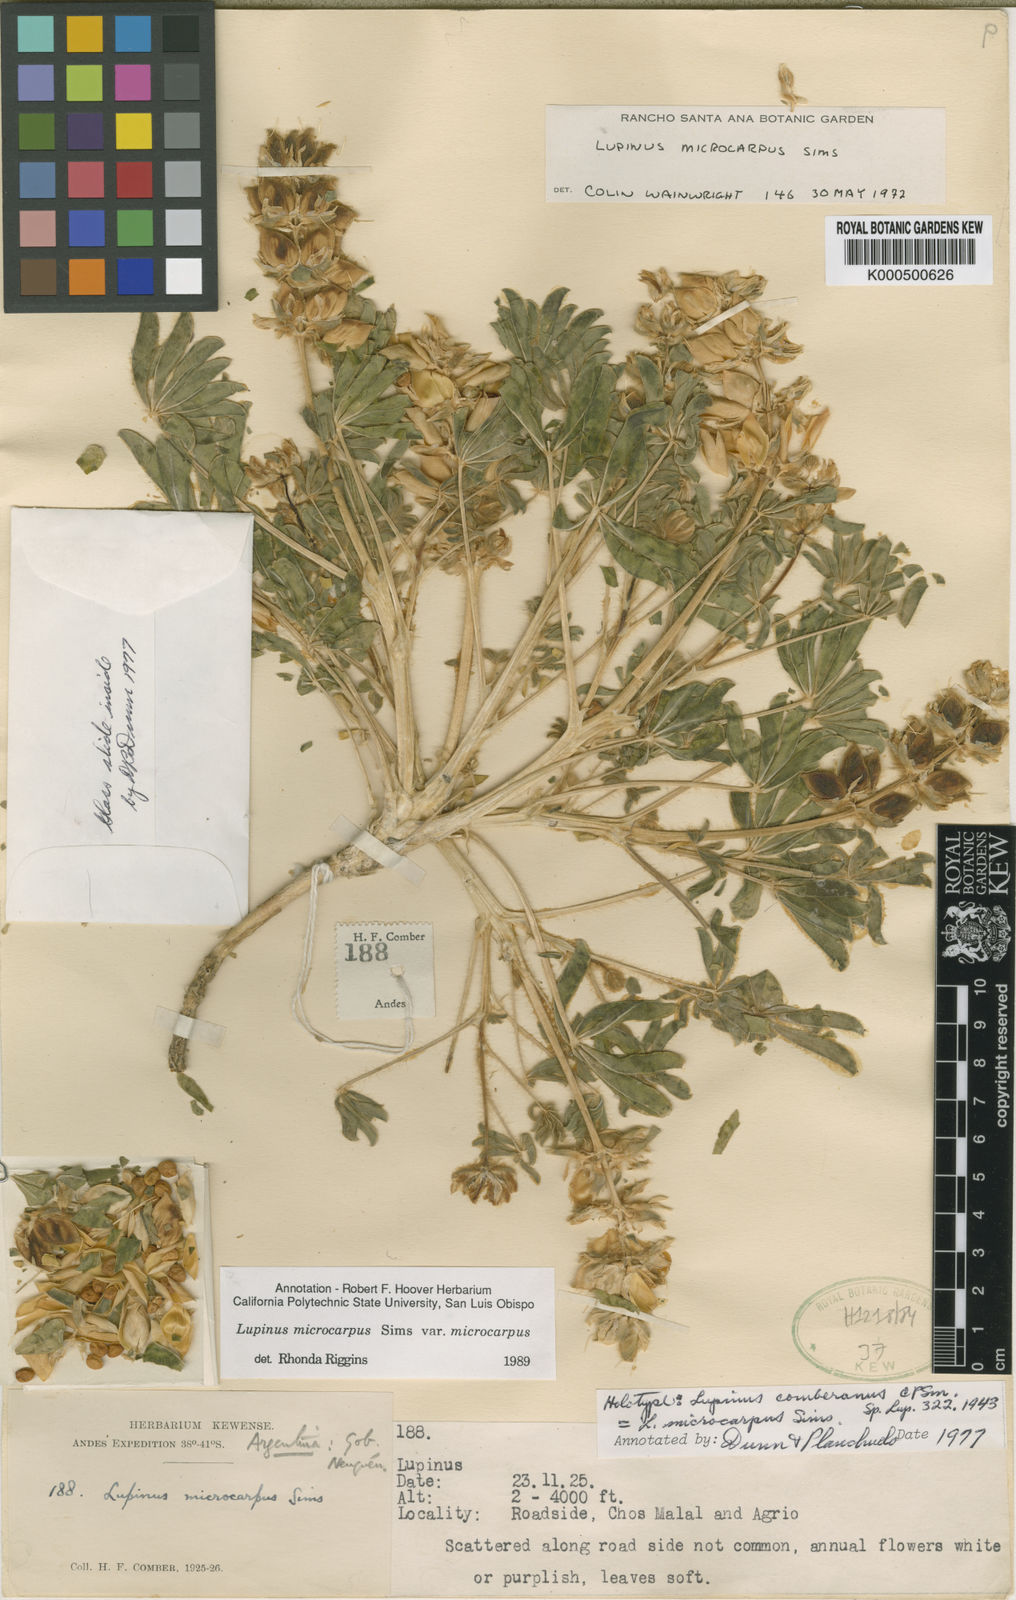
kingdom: Plantae
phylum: Tracheophyta
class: Magnoliopsida
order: Fabales
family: Fabaceae
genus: Lupinus
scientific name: Lupinus microcarpus
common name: Chick lupine
